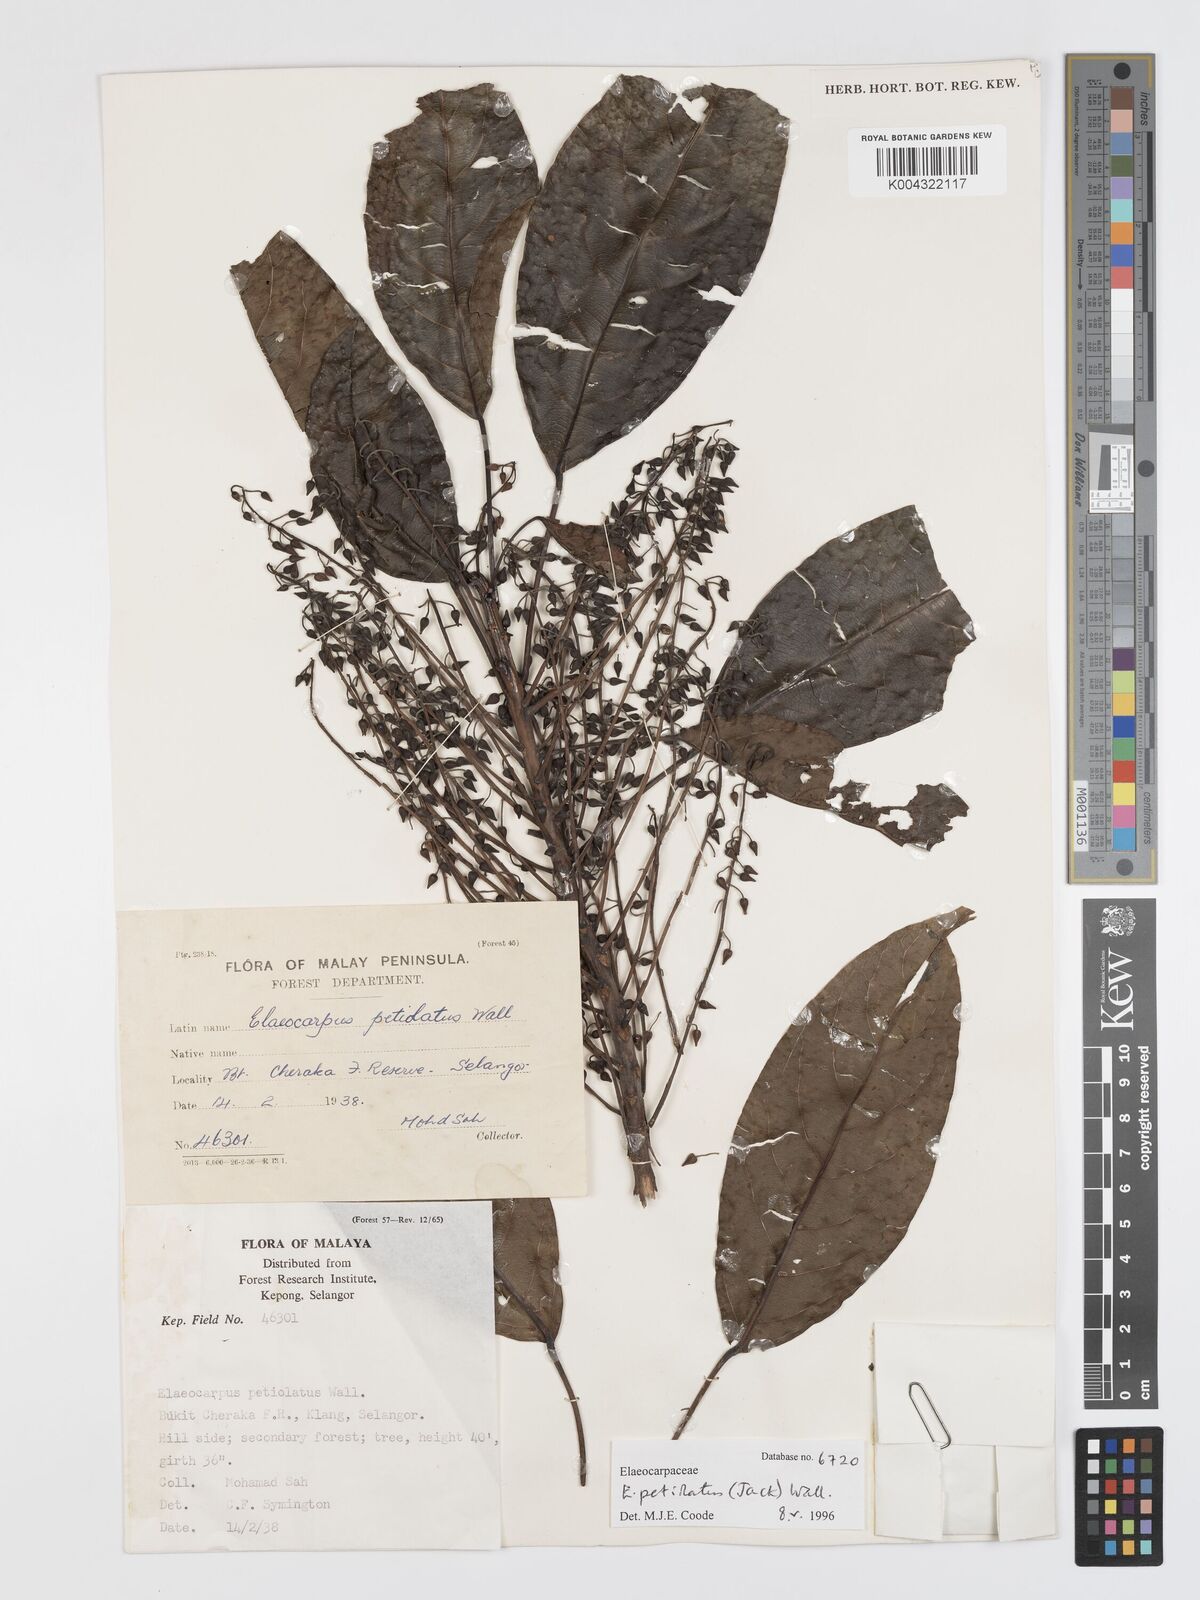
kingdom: Plantae
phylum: Tracheophyta
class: Magnoliopsida
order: Oxalidales
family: Elaeocarpaceae
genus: Elaeocarpus
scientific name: Elaeocarpus petiolatus
